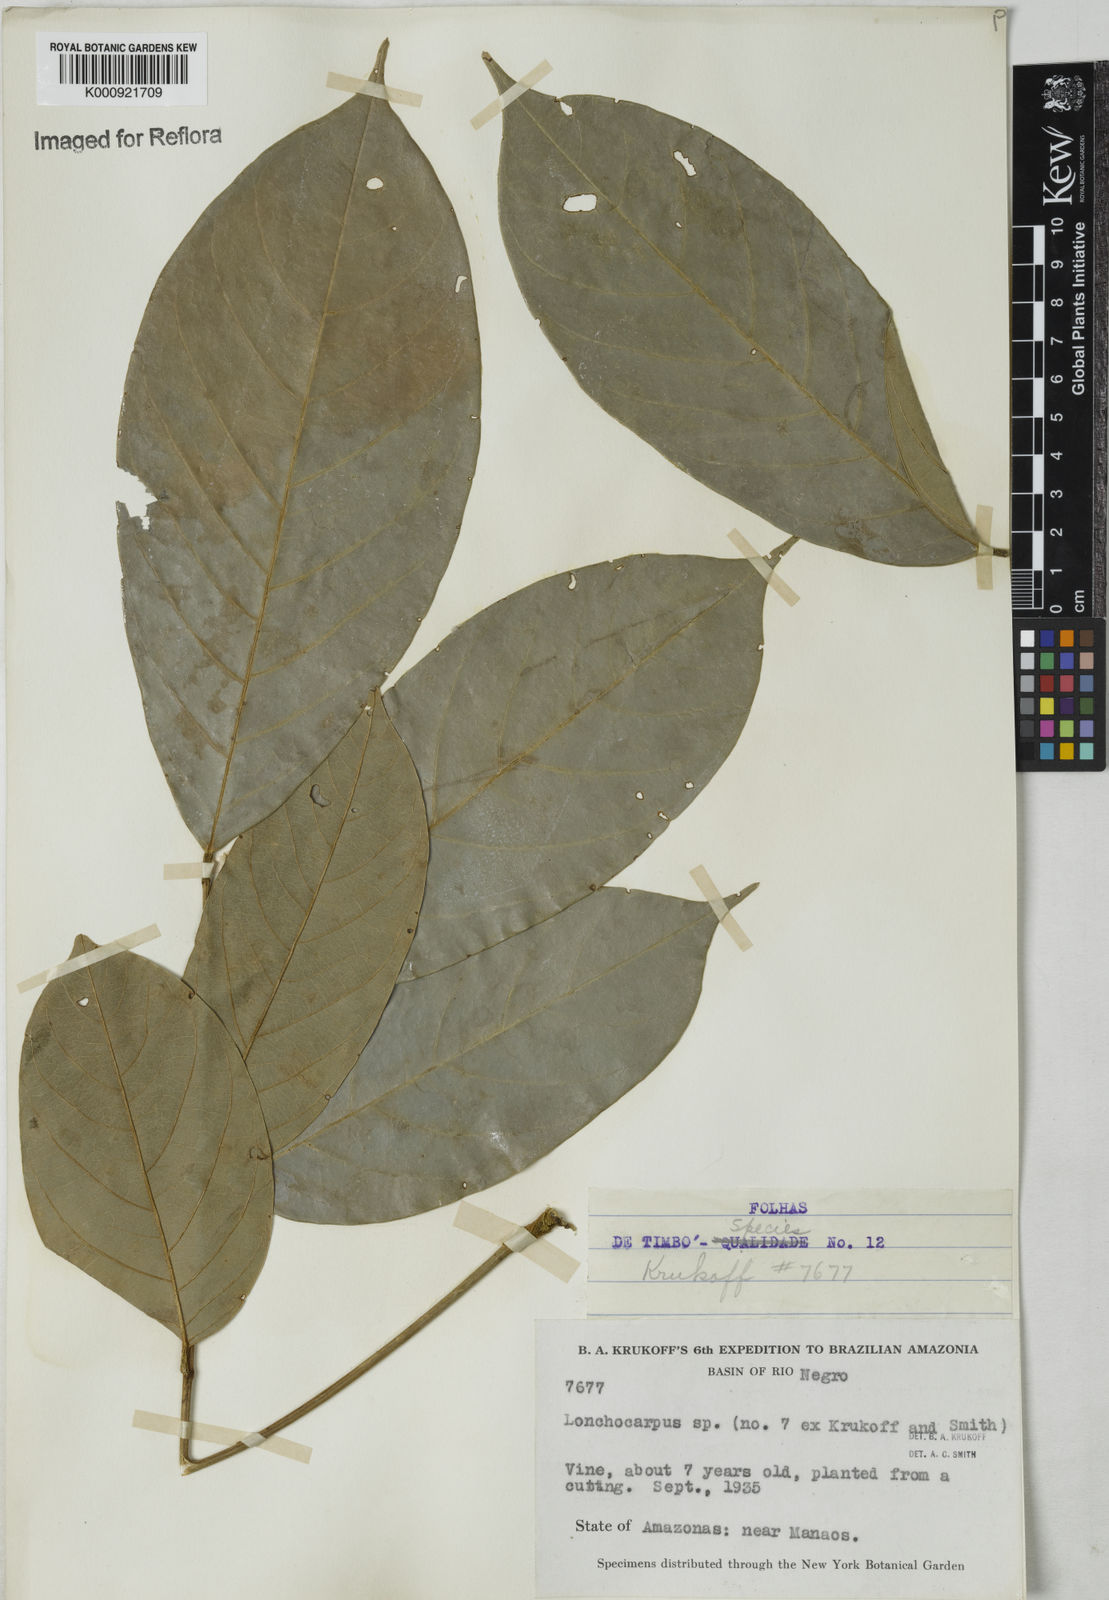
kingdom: Plantae
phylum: Tracheophyta
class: Magnoliopsida
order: Fabales
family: Fabaceae
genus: Lonchocarpus
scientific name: Lonchocarpus
